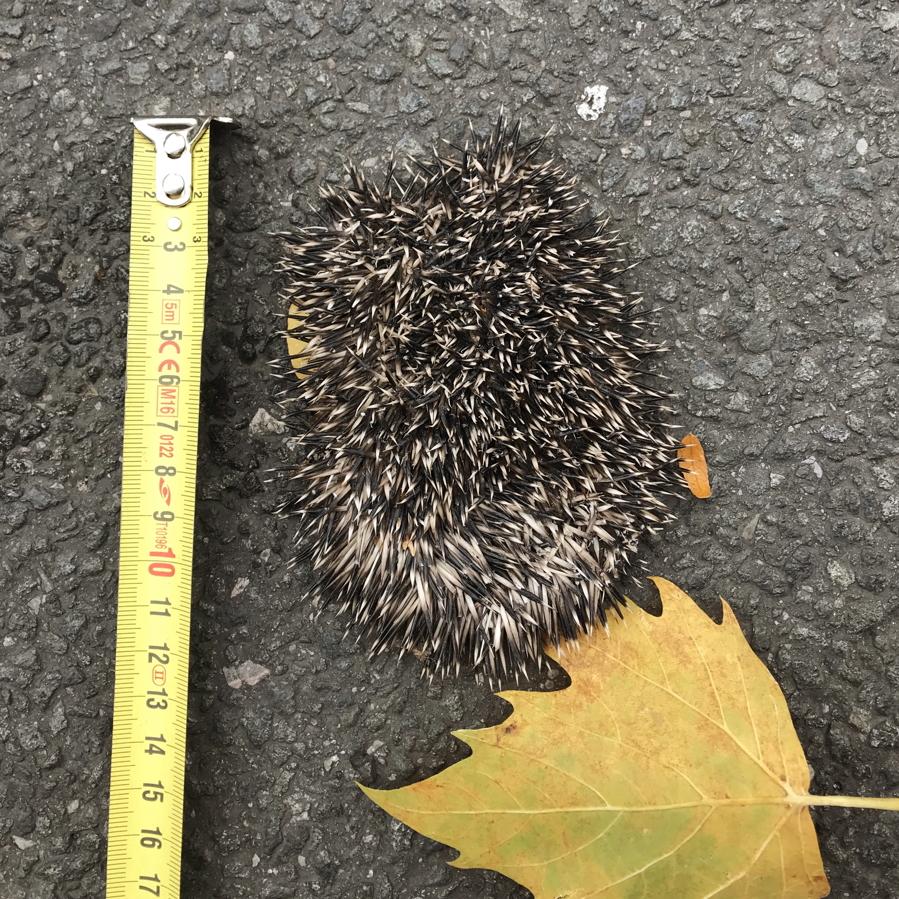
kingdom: Animalia
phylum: Chordata
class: Mammalia
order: Erinaceomorpha
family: Erinaceidae
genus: Erinaceus
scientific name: Erinaceus
